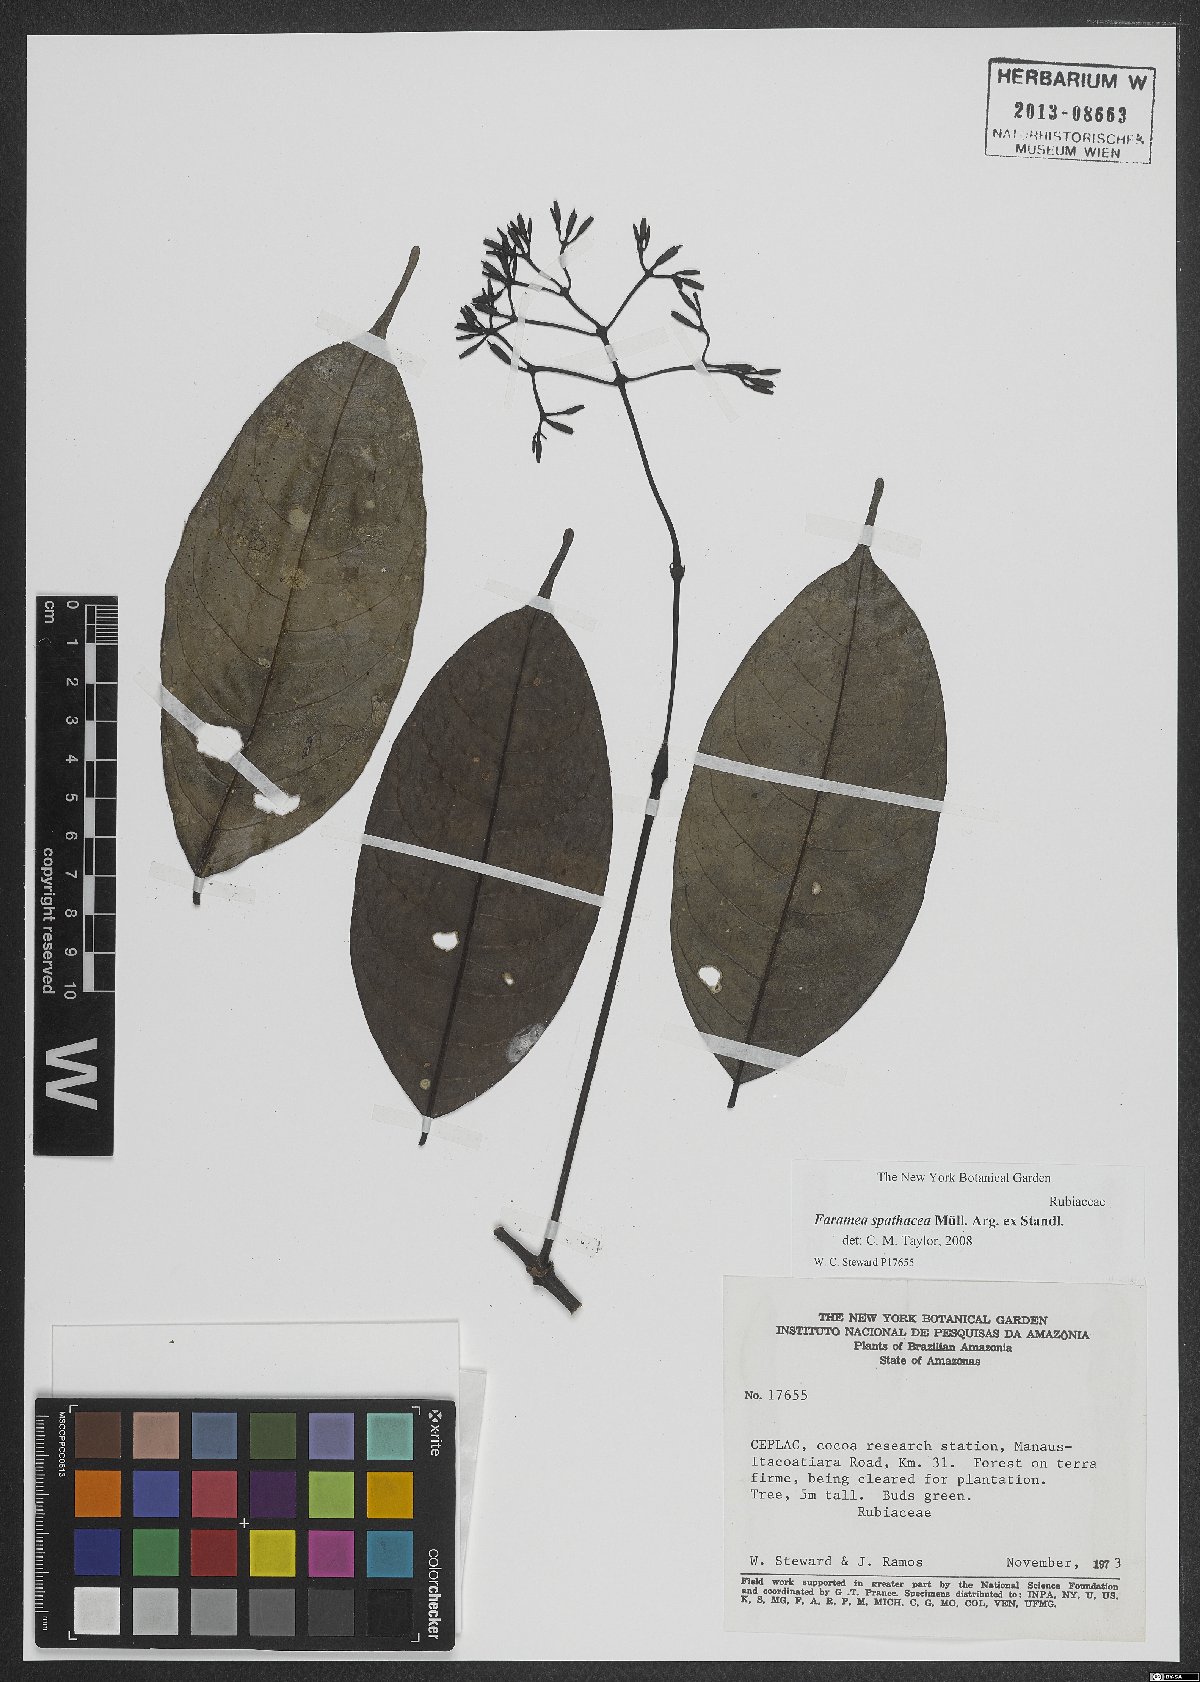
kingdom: Plantae
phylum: Tracheophyta
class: Magnoliopsida
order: Gentianales
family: Rubiaceae
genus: Faramea
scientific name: Faramea spathacea
